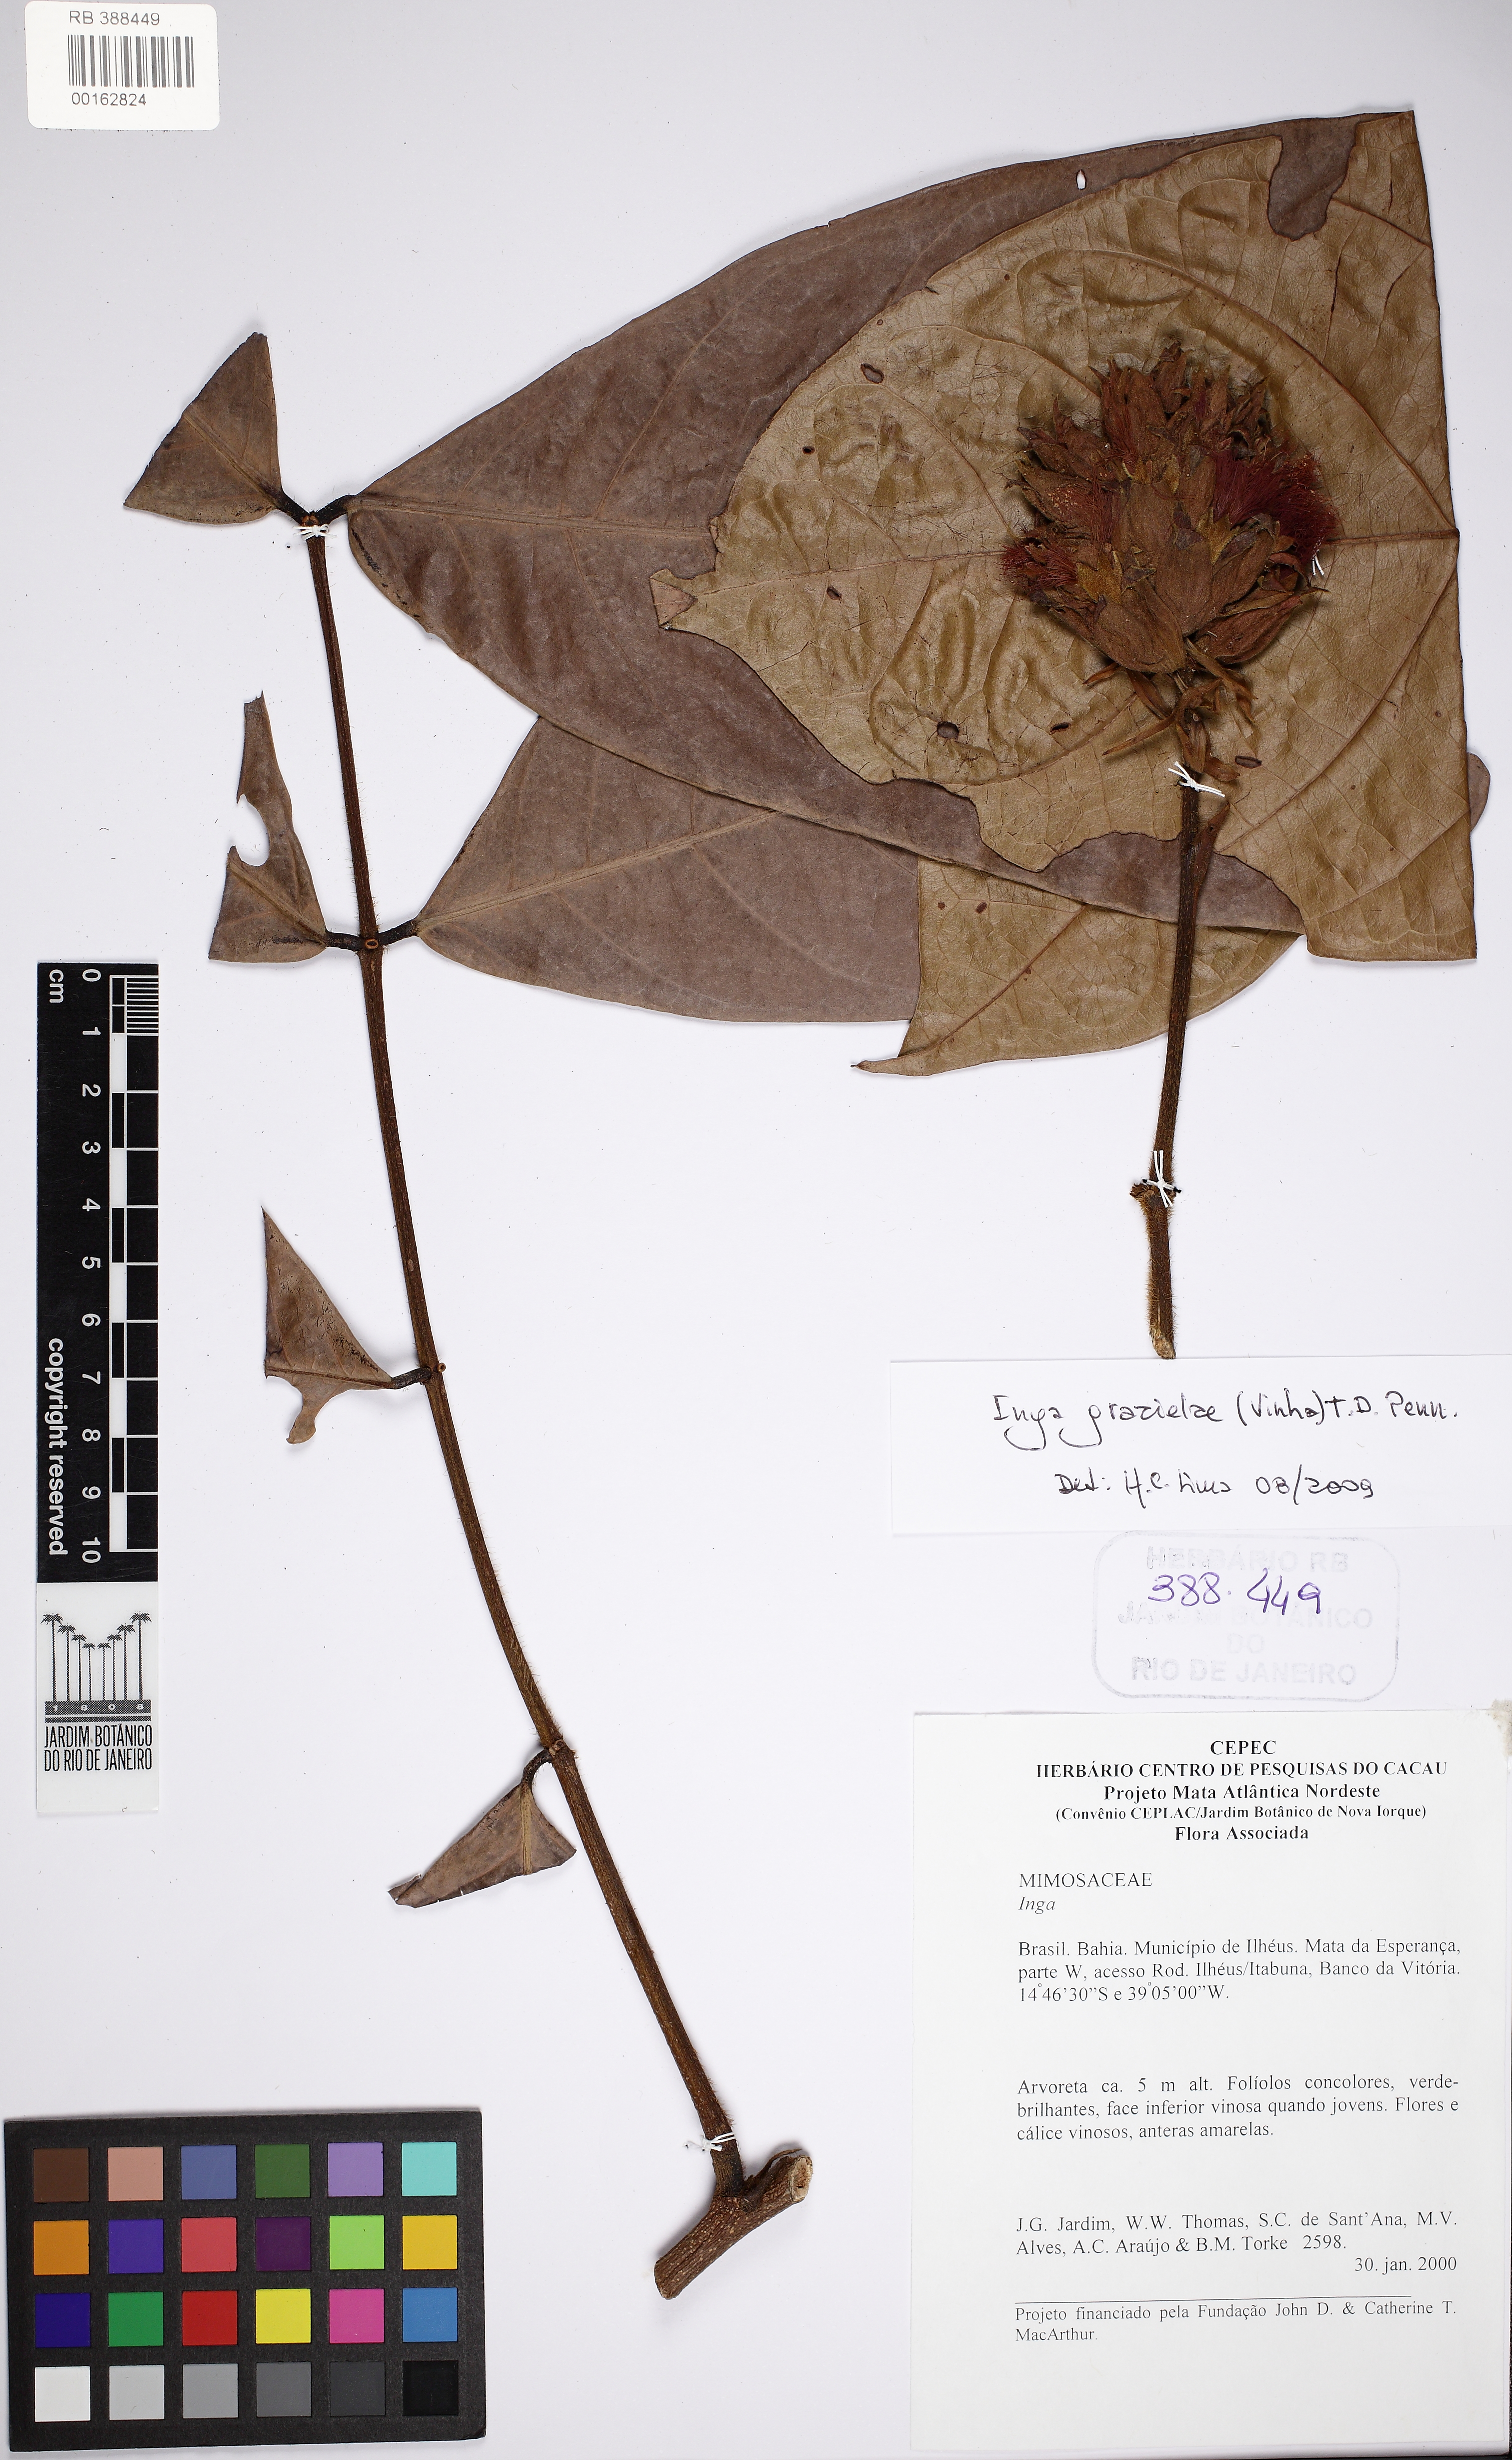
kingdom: Plantae
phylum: Tracheophyta
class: Magnoliopsida
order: Fabales
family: Fabaceae
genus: Inga
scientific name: Inga grazielae
